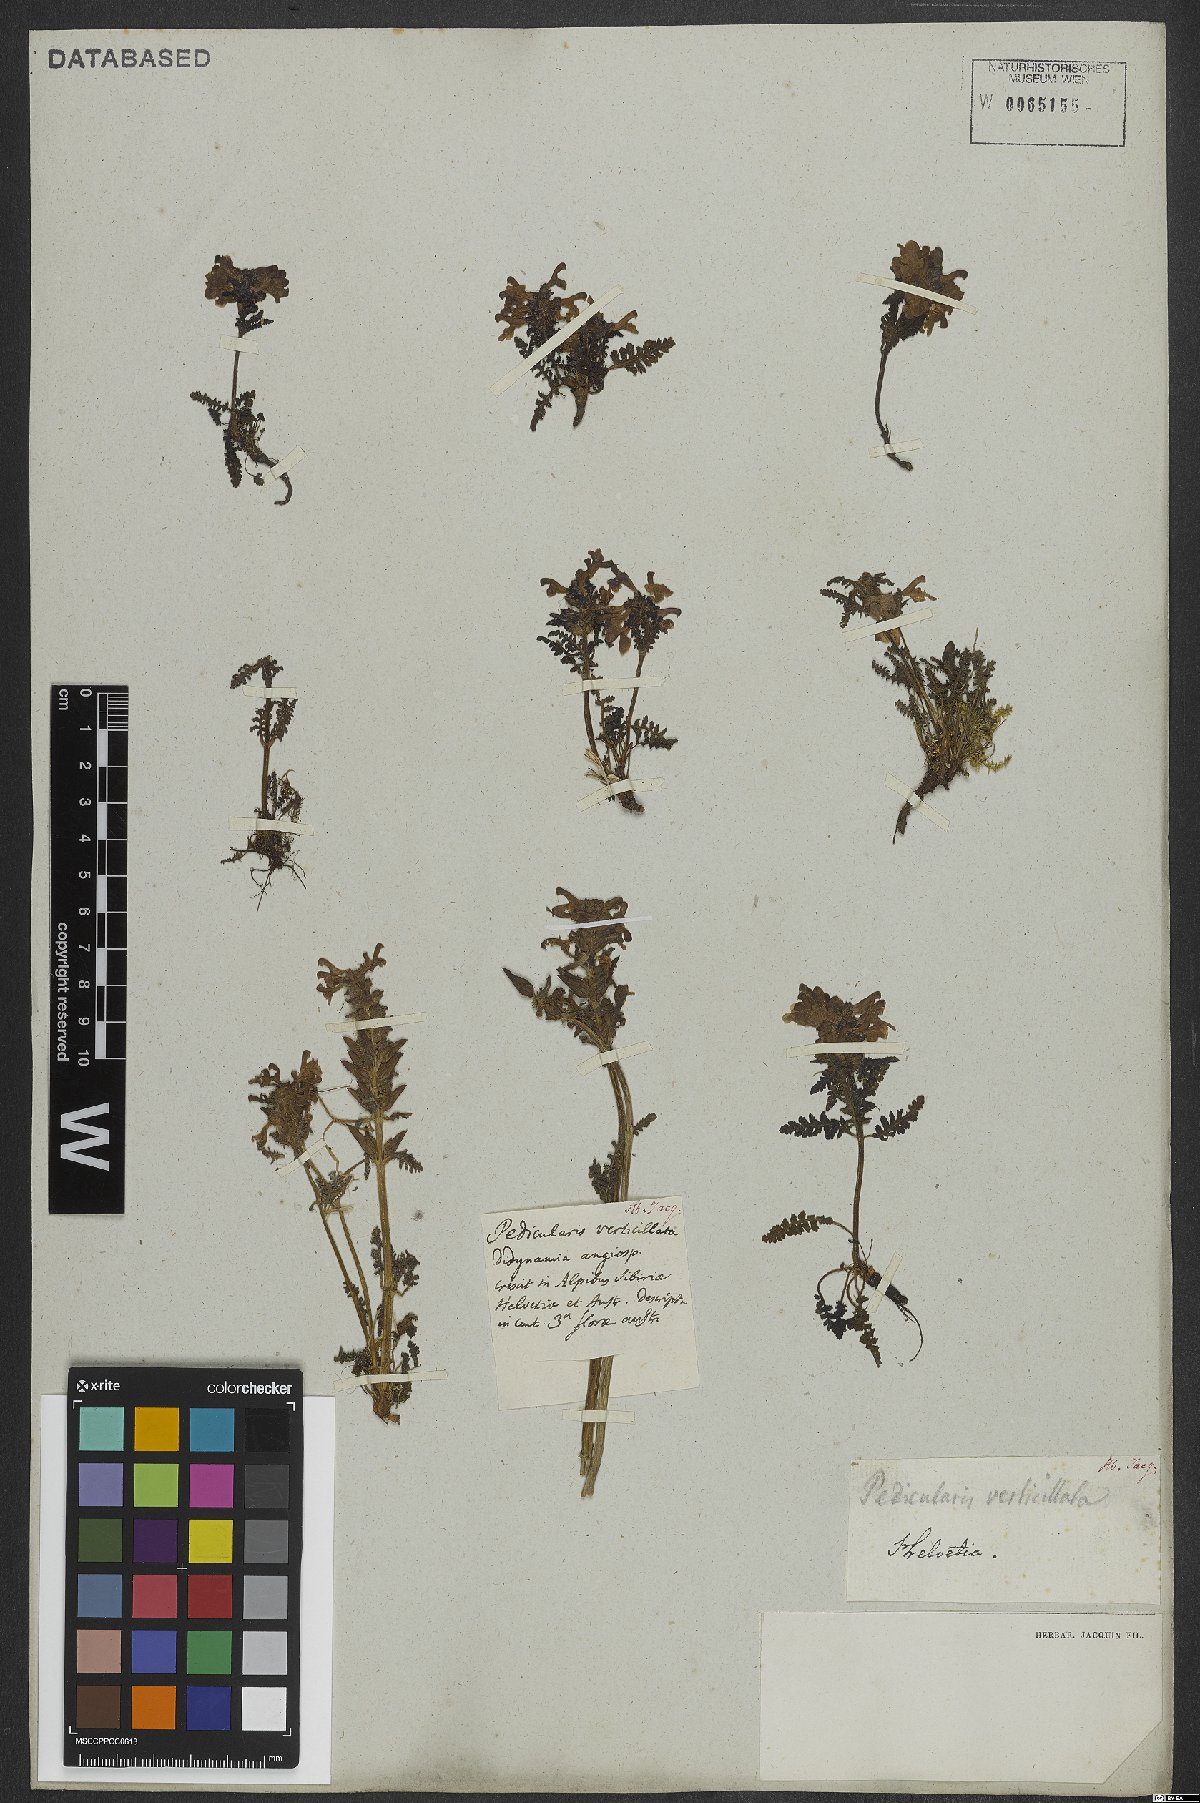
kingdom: Plantae
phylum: Tracheophyta
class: Magnoliopsida
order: Lamiales
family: Orobanchaceae
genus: Pedicularis
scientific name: Pedicularis verticillata
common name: Whorled lousewort
